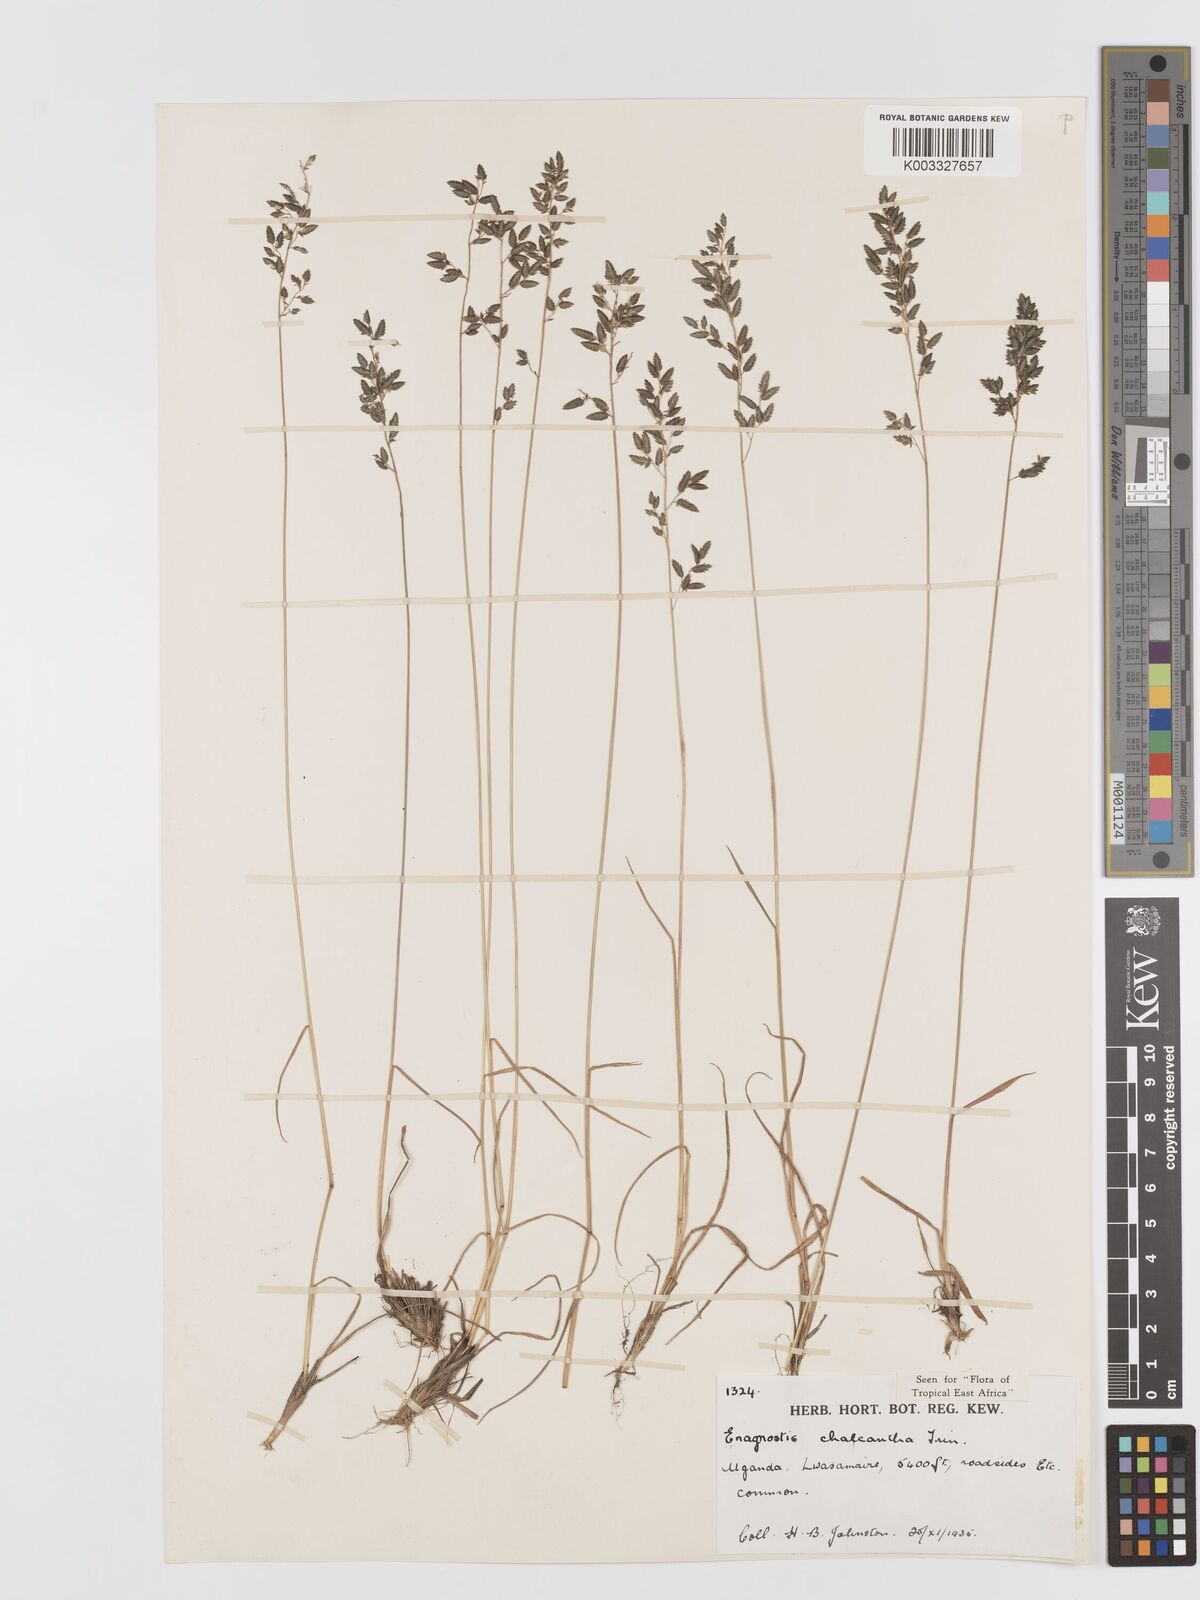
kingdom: Plantae
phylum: Tracheophyta
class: Liliopsida
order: Poales
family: Poaceae
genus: Eragrostis
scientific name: Eragrostis racemosa
